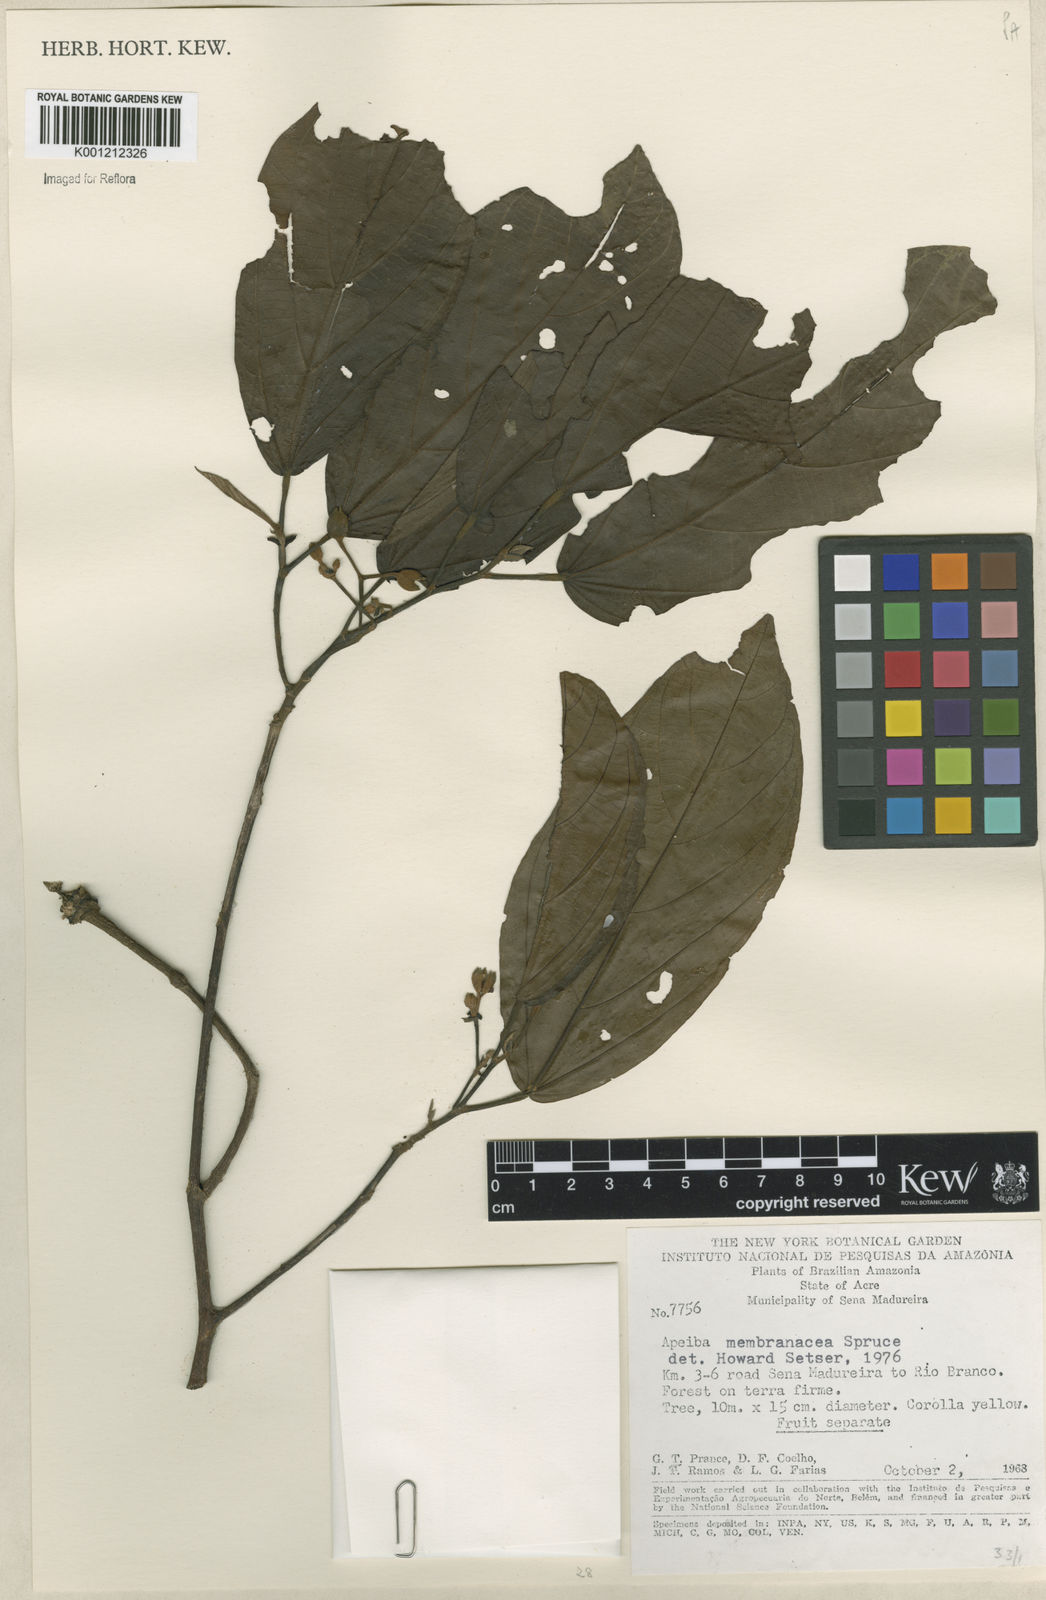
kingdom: Plantae
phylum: Tracheophyta
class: Magnoliopsida
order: Malvales
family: Malvaceae
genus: Apeiba
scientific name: Apeiba membranacea
